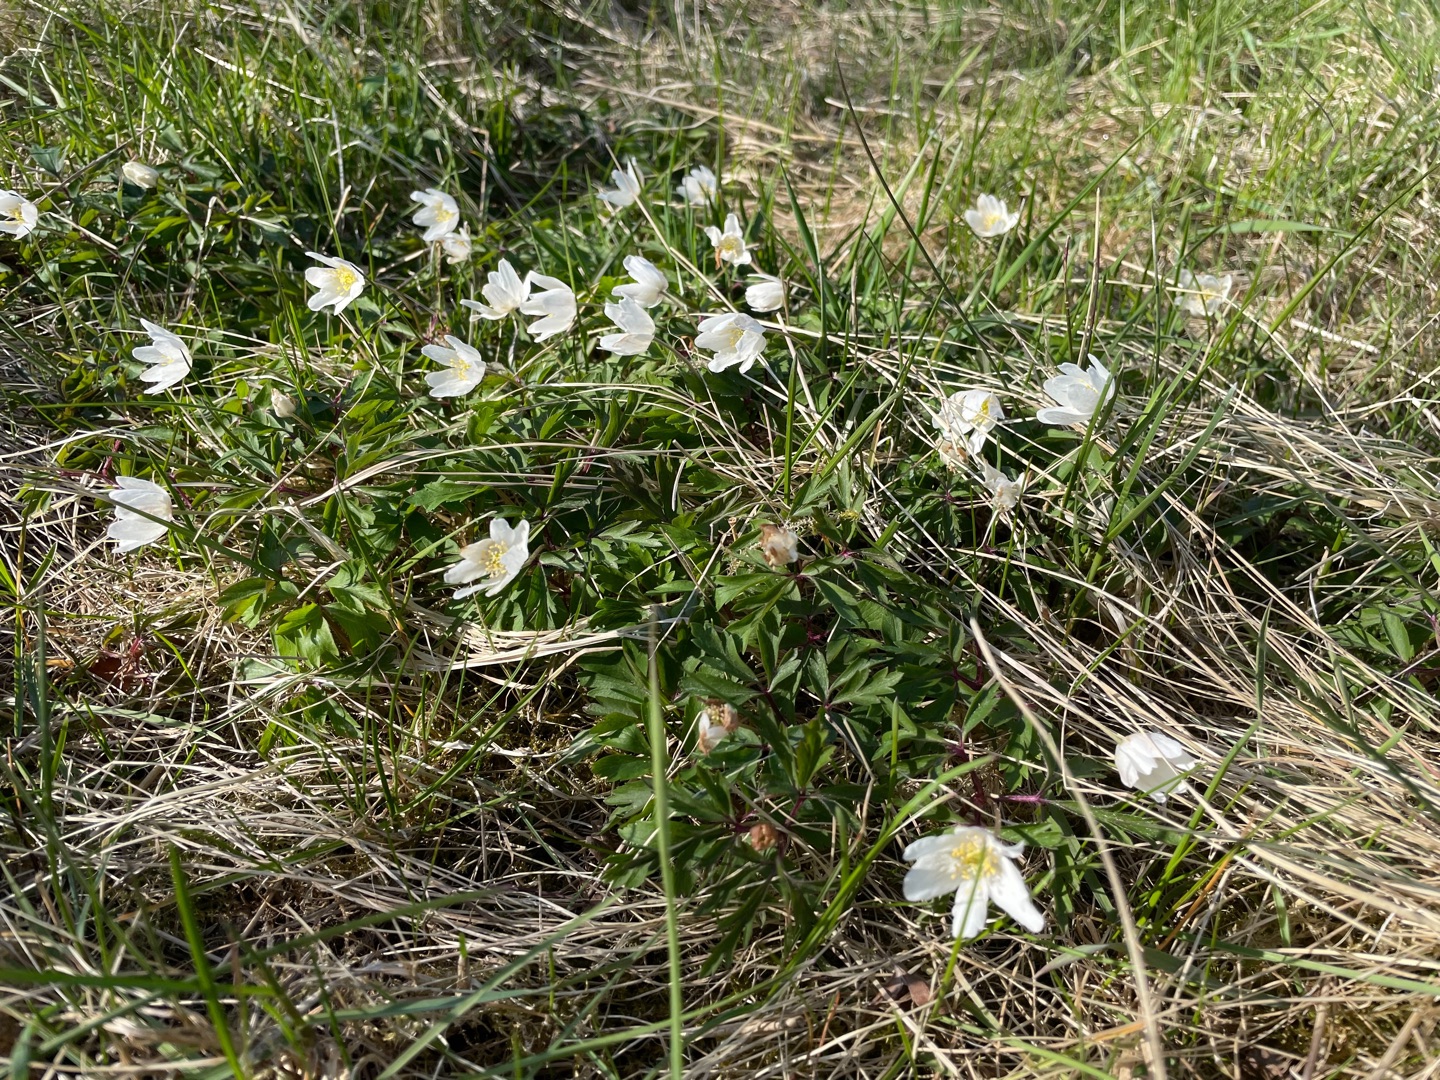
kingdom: Plantae
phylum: Tracheophyta
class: Magnoliopsida
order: Ranunculales
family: Ranunculaceae
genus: Anemone
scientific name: Anemone nemorosa
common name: Hvid anemone
